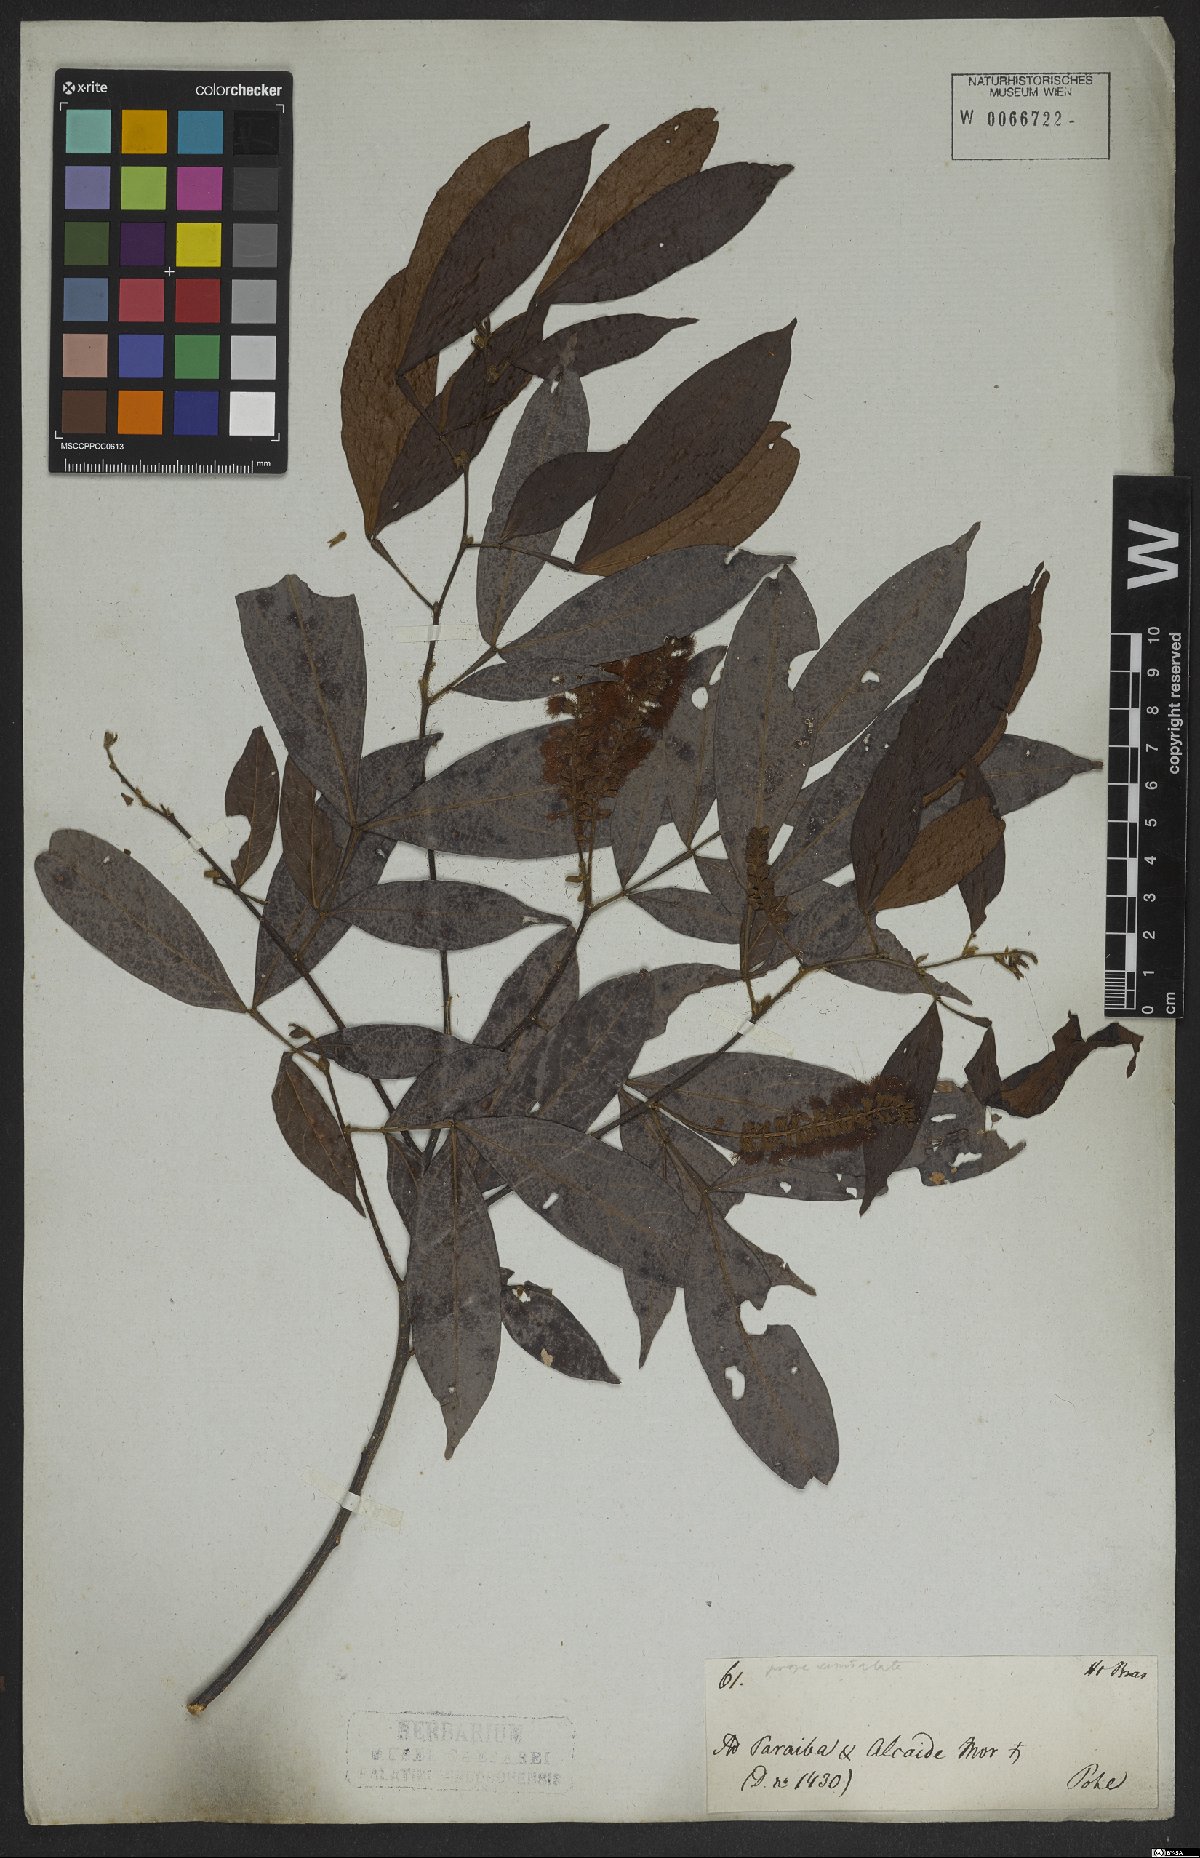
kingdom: Plantae
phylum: Tracheophyta
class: Magnoliopsida
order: Fabales
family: Fabaceae
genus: Inga
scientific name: Inga marginata
